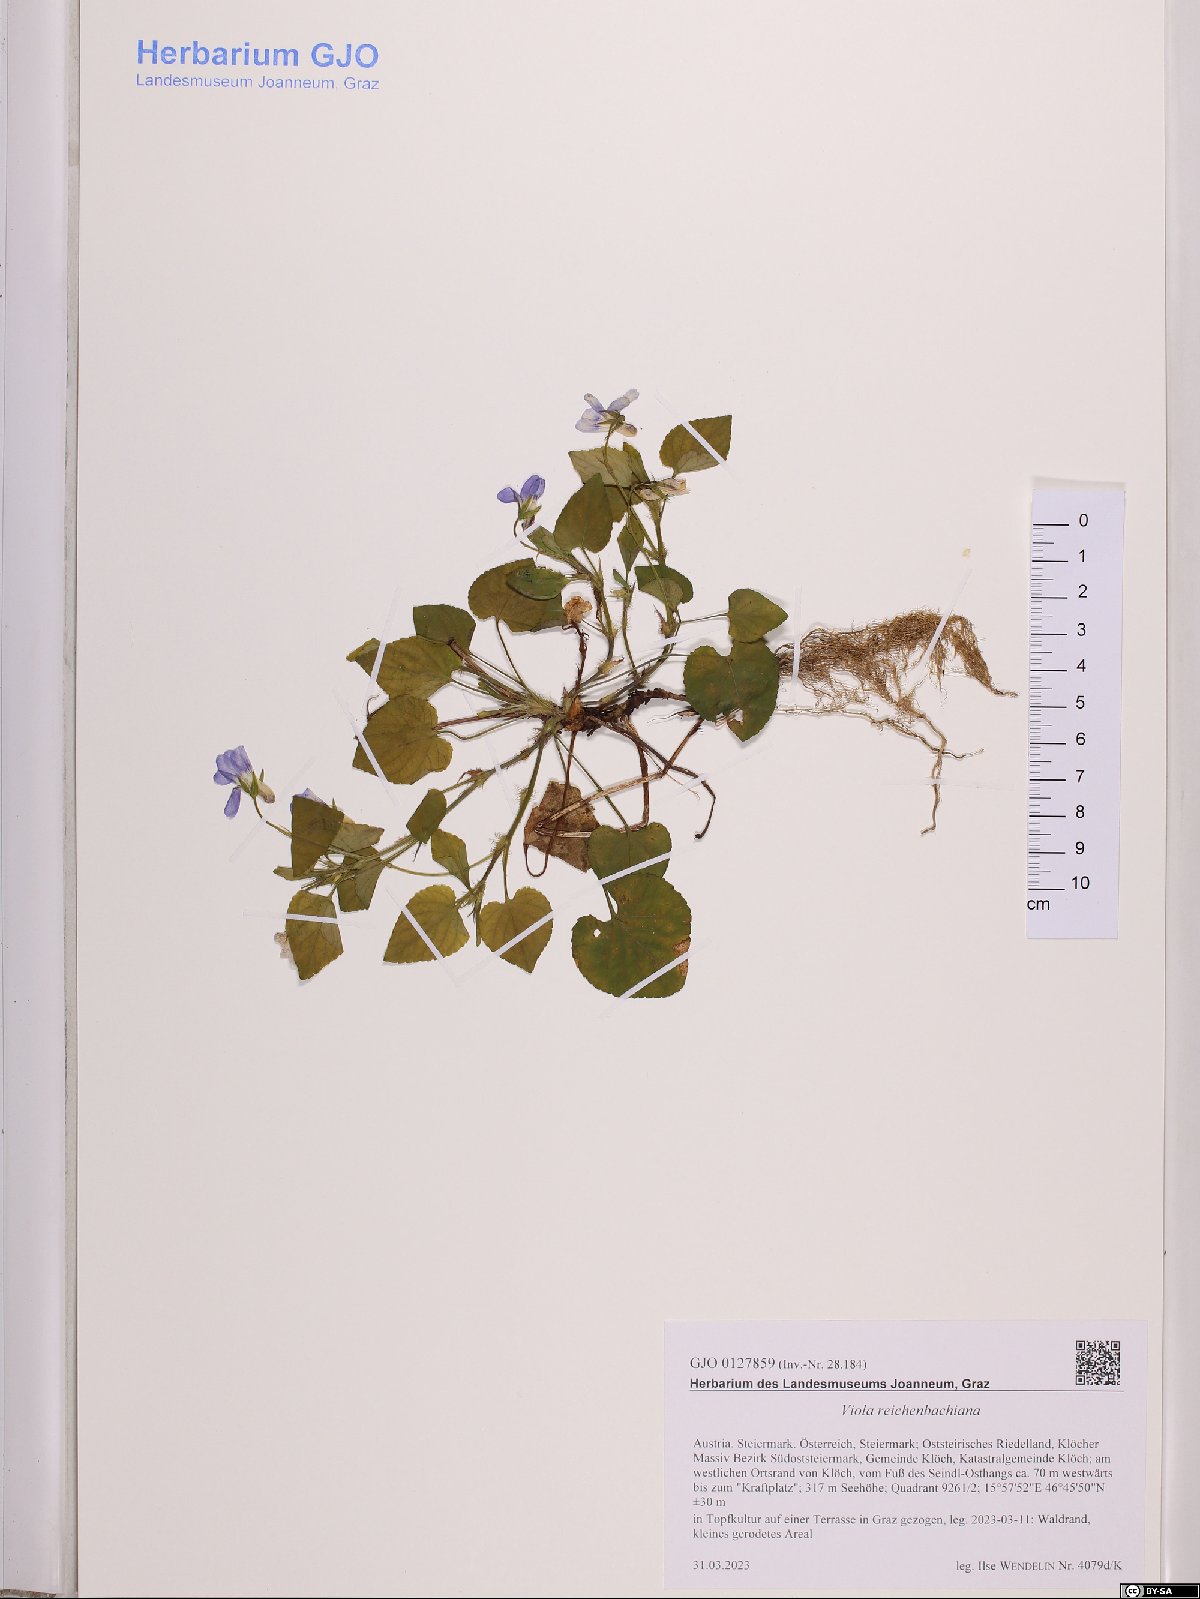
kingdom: Plantae
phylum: Tracheophyta
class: Magnoliopsida
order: Malpighiales
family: Violaceae
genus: Viola
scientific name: Viola reichenbachiana
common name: Early dog-violet
